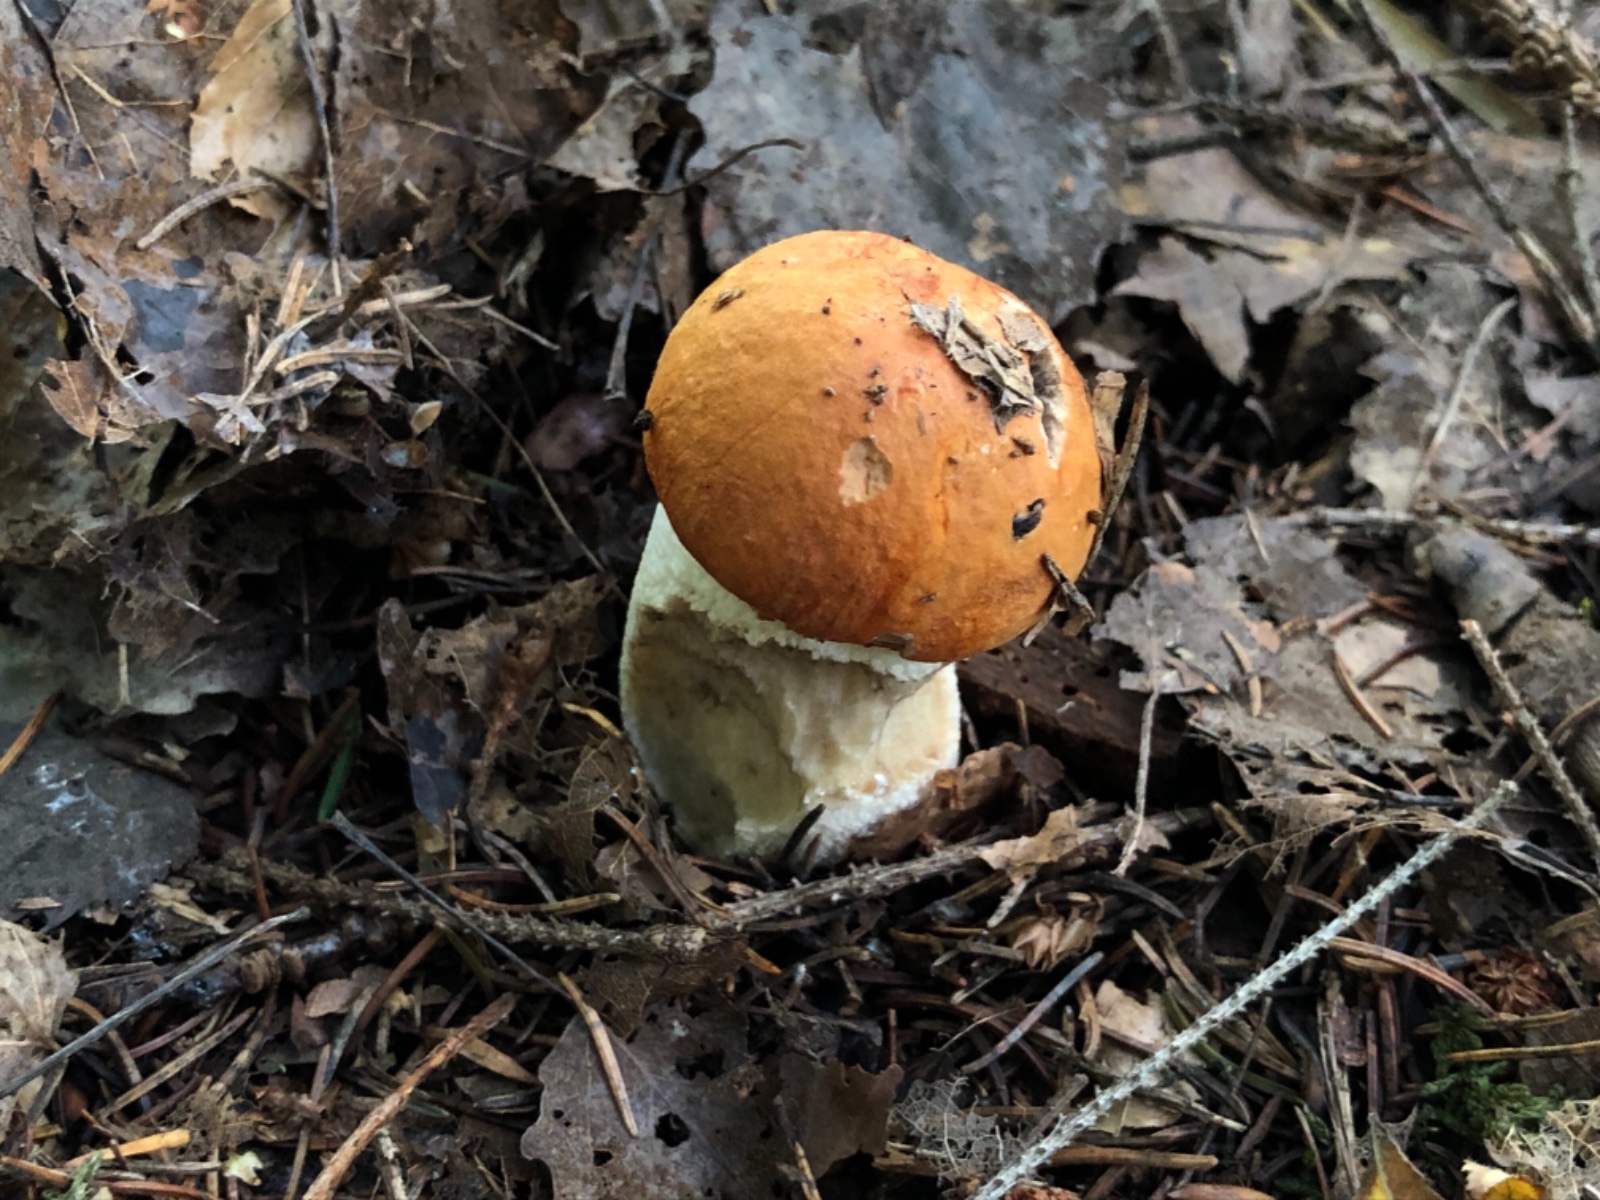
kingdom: Fungi
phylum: Basidiomycota
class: Agaricomycetes
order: Boletales
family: Boletaceae
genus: Leccinum
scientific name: Leccinum albostipitatum
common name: aspe-skælrørhat
